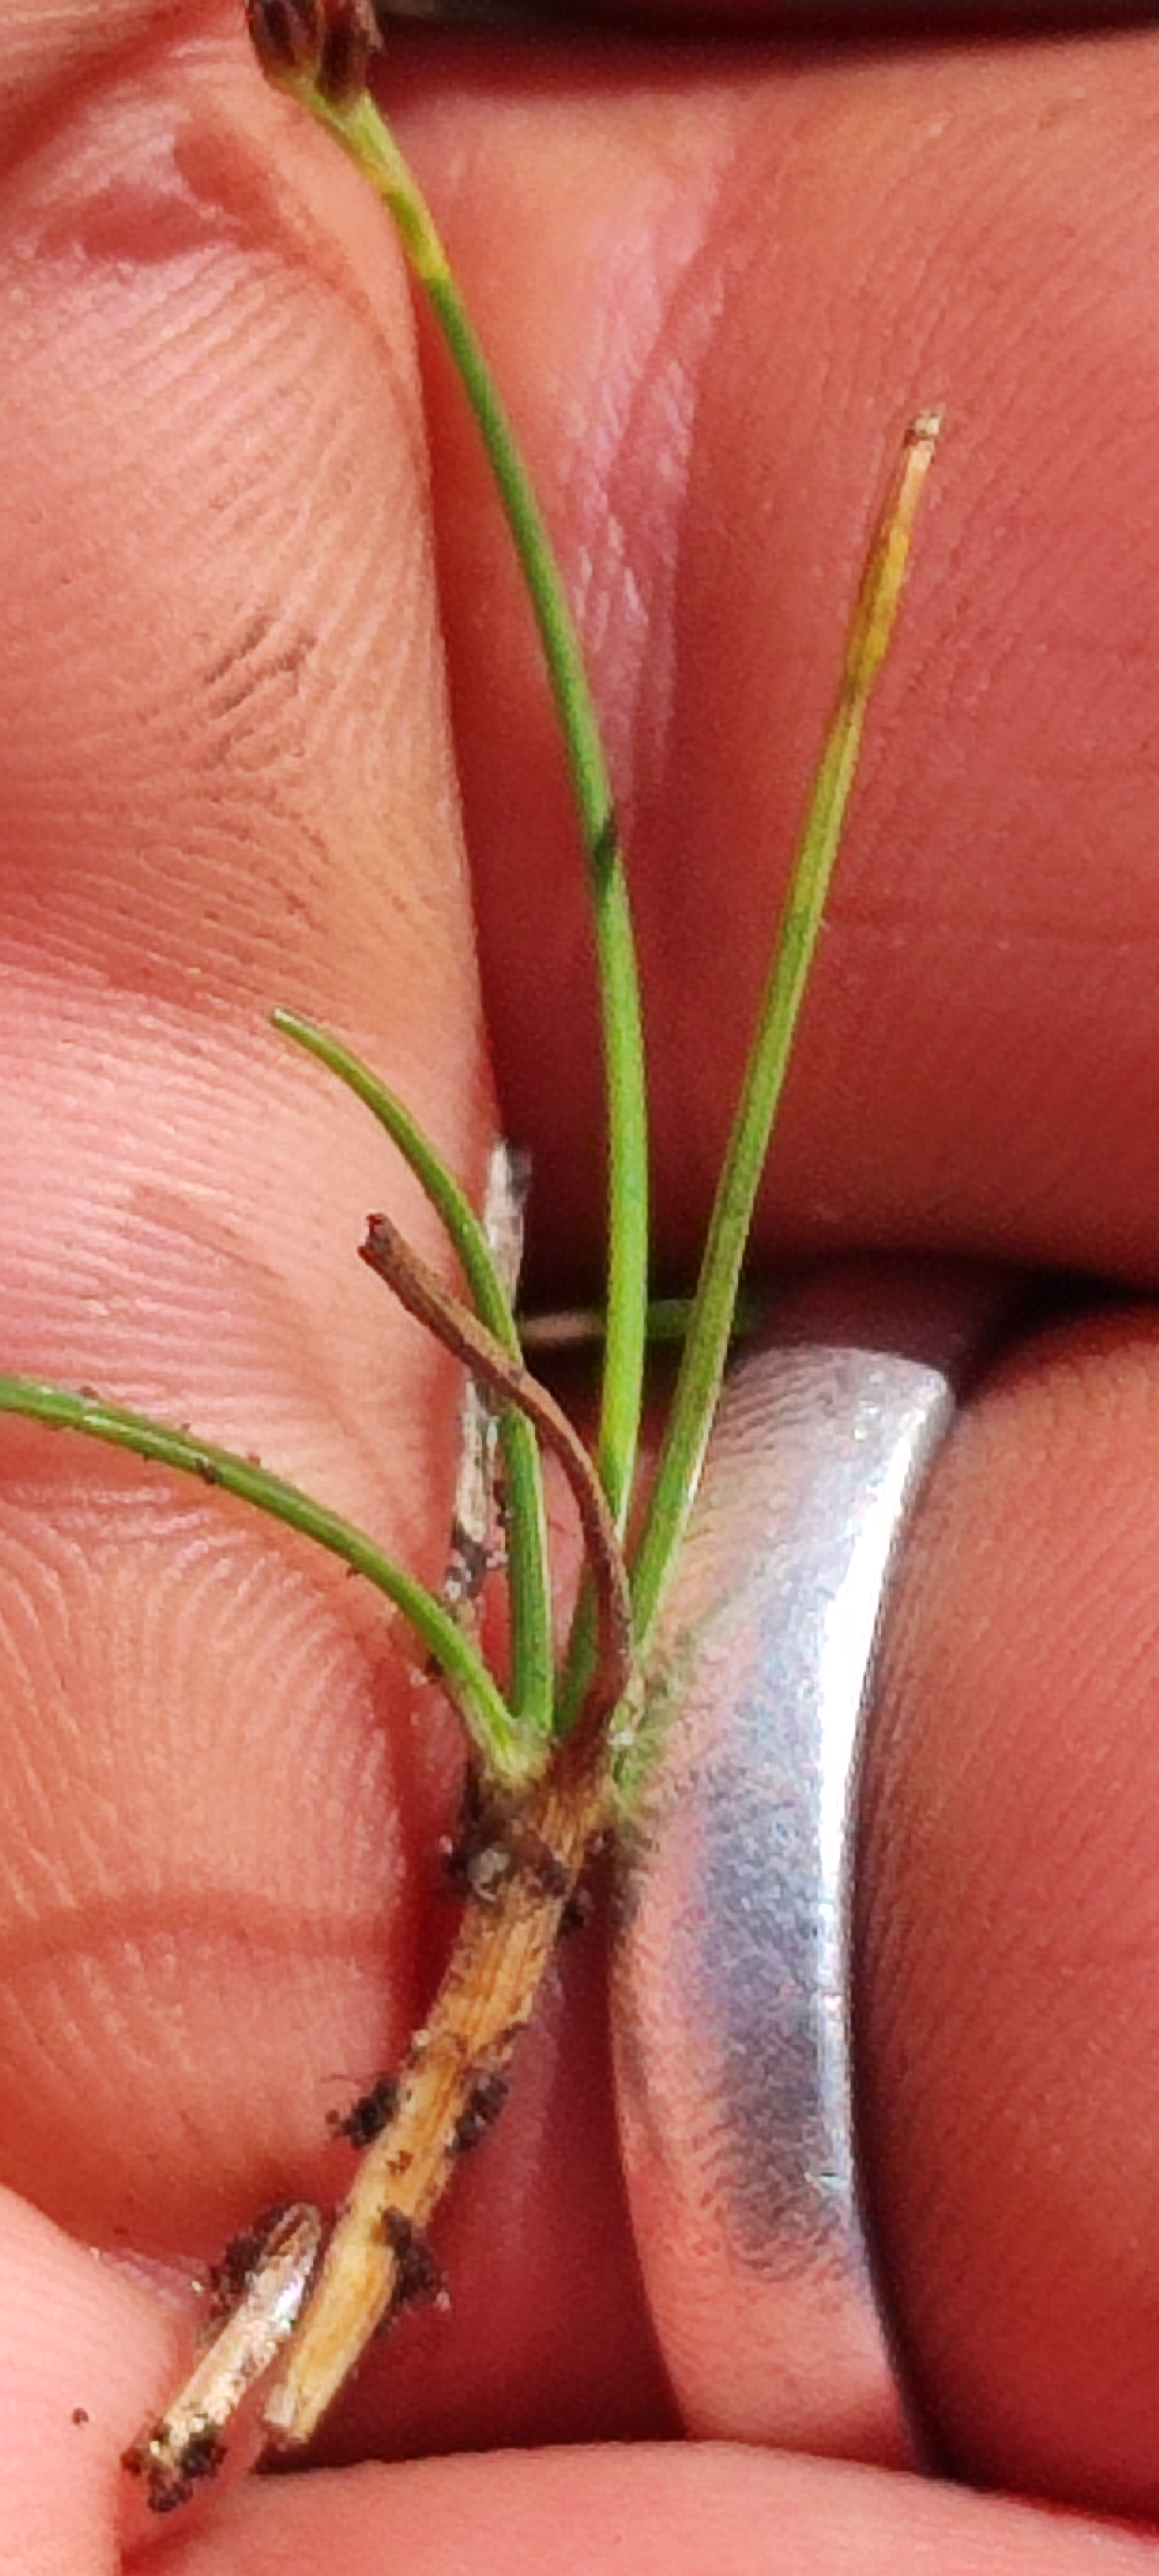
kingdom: Plantae
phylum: Tracheophyta
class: Liliopsida
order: Poales
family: Juncaceae
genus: Juncus
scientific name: Juncus bulbosus
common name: Liden siv
